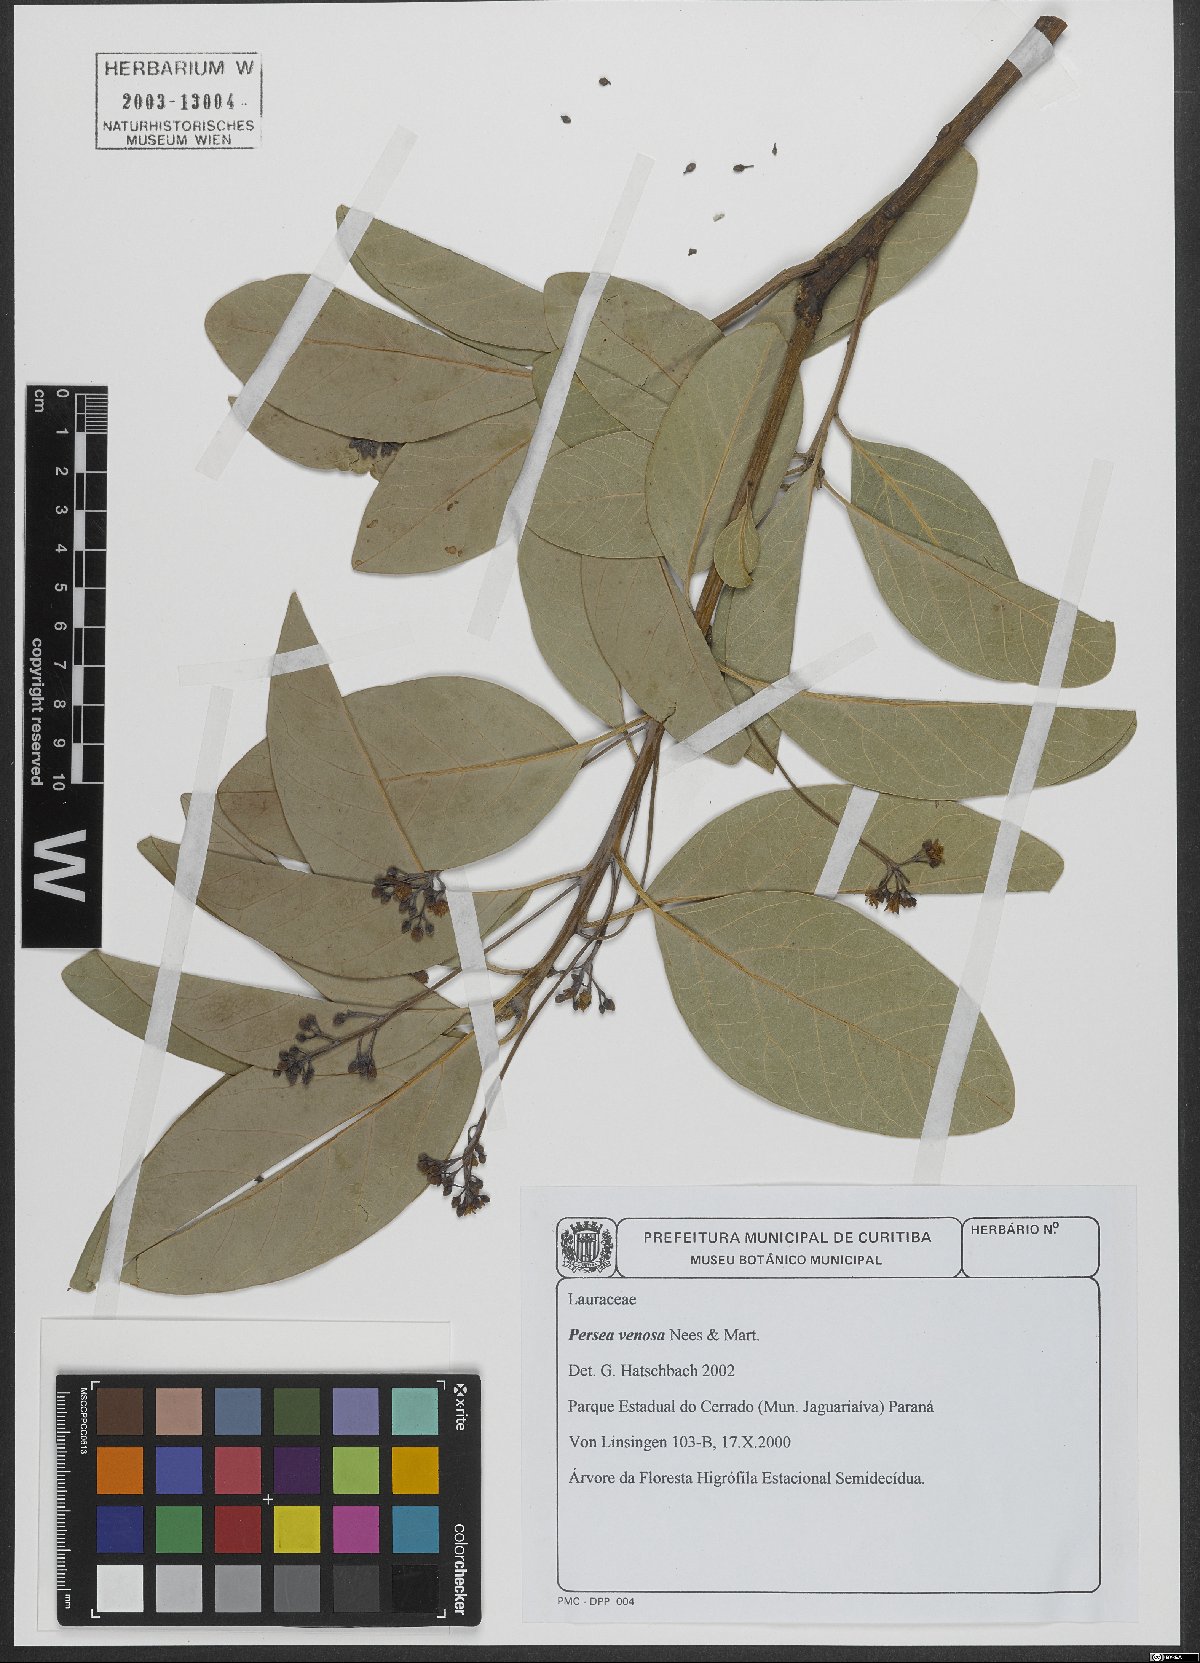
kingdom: Plantae
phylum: Tracheophyta
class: Magnoliopsida
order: Laurales
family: Lauraceae
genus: Persea
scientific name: Persea venosa
